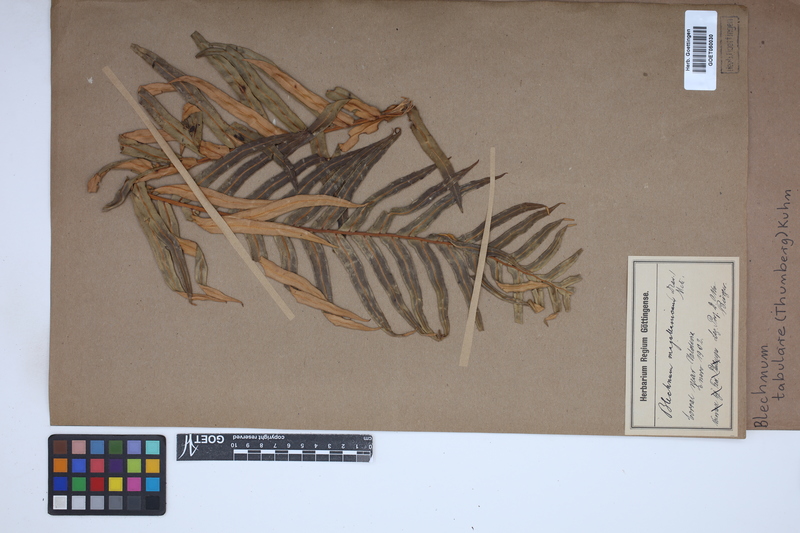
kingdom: Plantae
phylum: Tracheophyta
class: Polypodiopsida
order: Polypodiales
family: Blechnaceae
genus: Lomariocycas
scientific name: Lomariocycas tabularis
